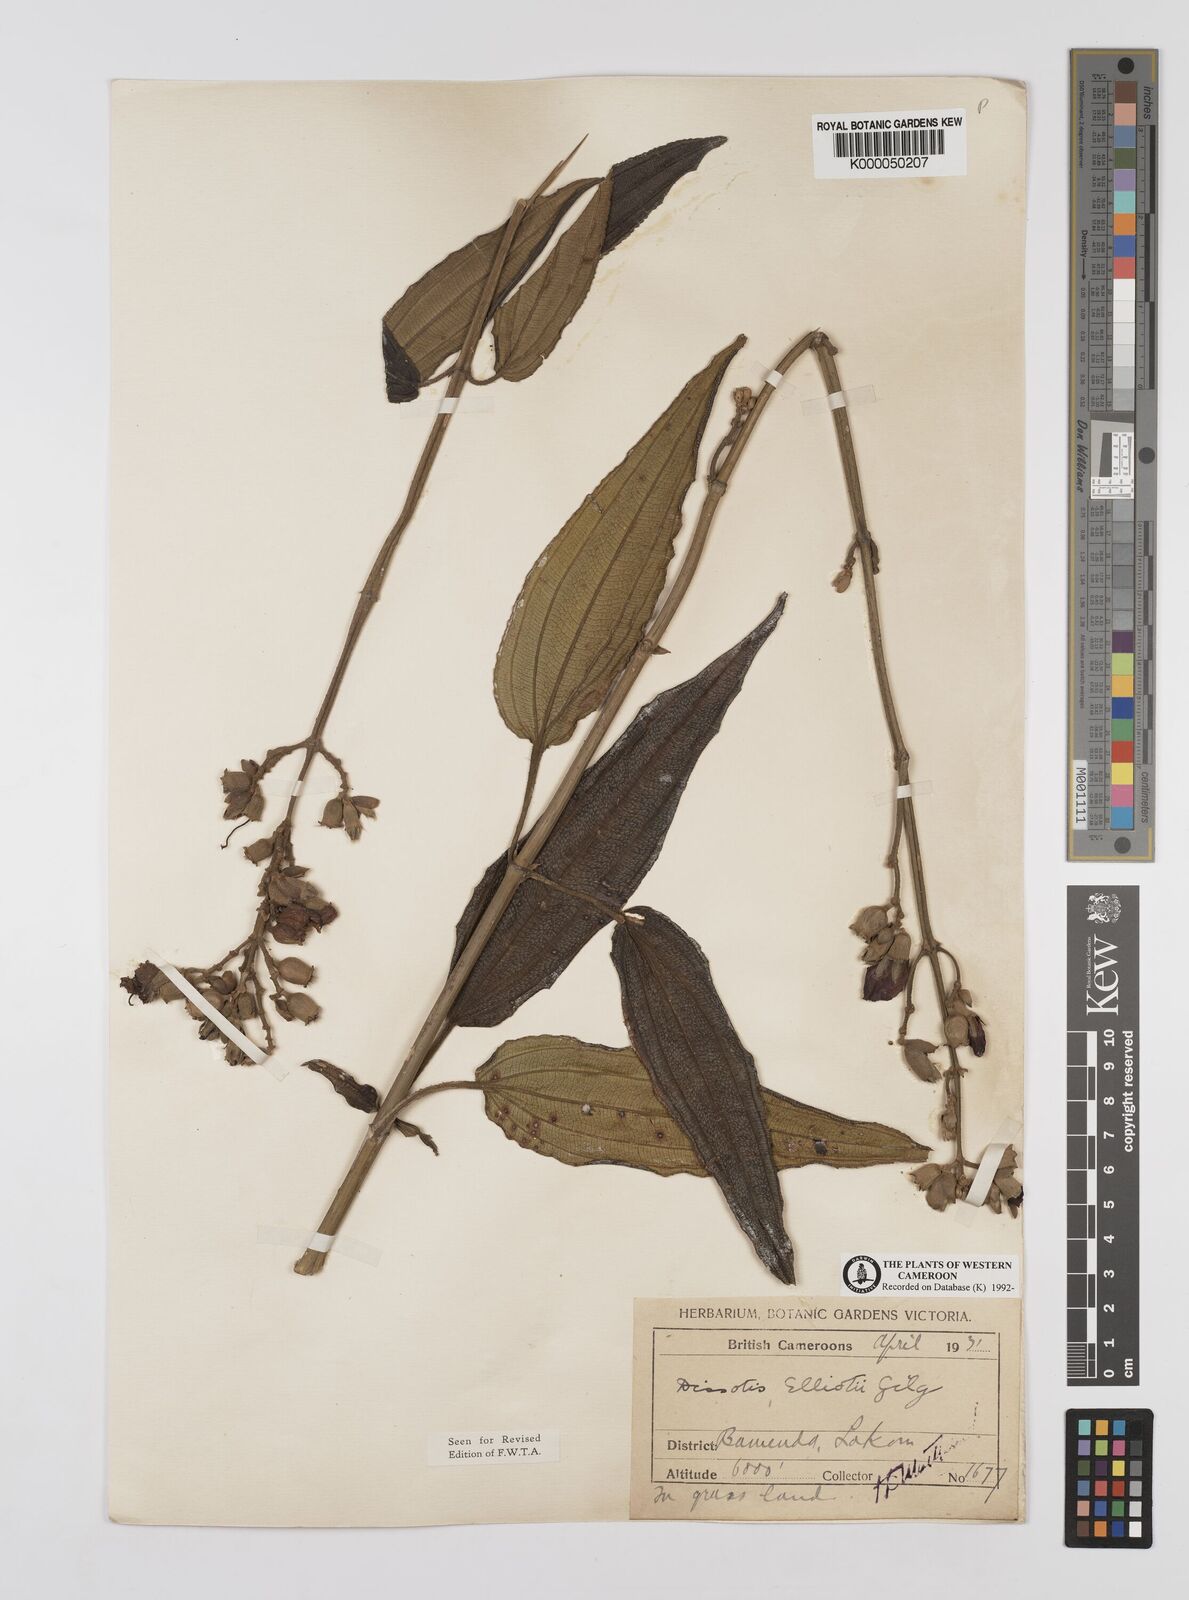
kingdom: Plantae
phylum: Tracheophyta
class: Magnoliopsida
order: Myrtales
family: Melastomataceae
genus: Dissotis
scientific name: Dissotis
